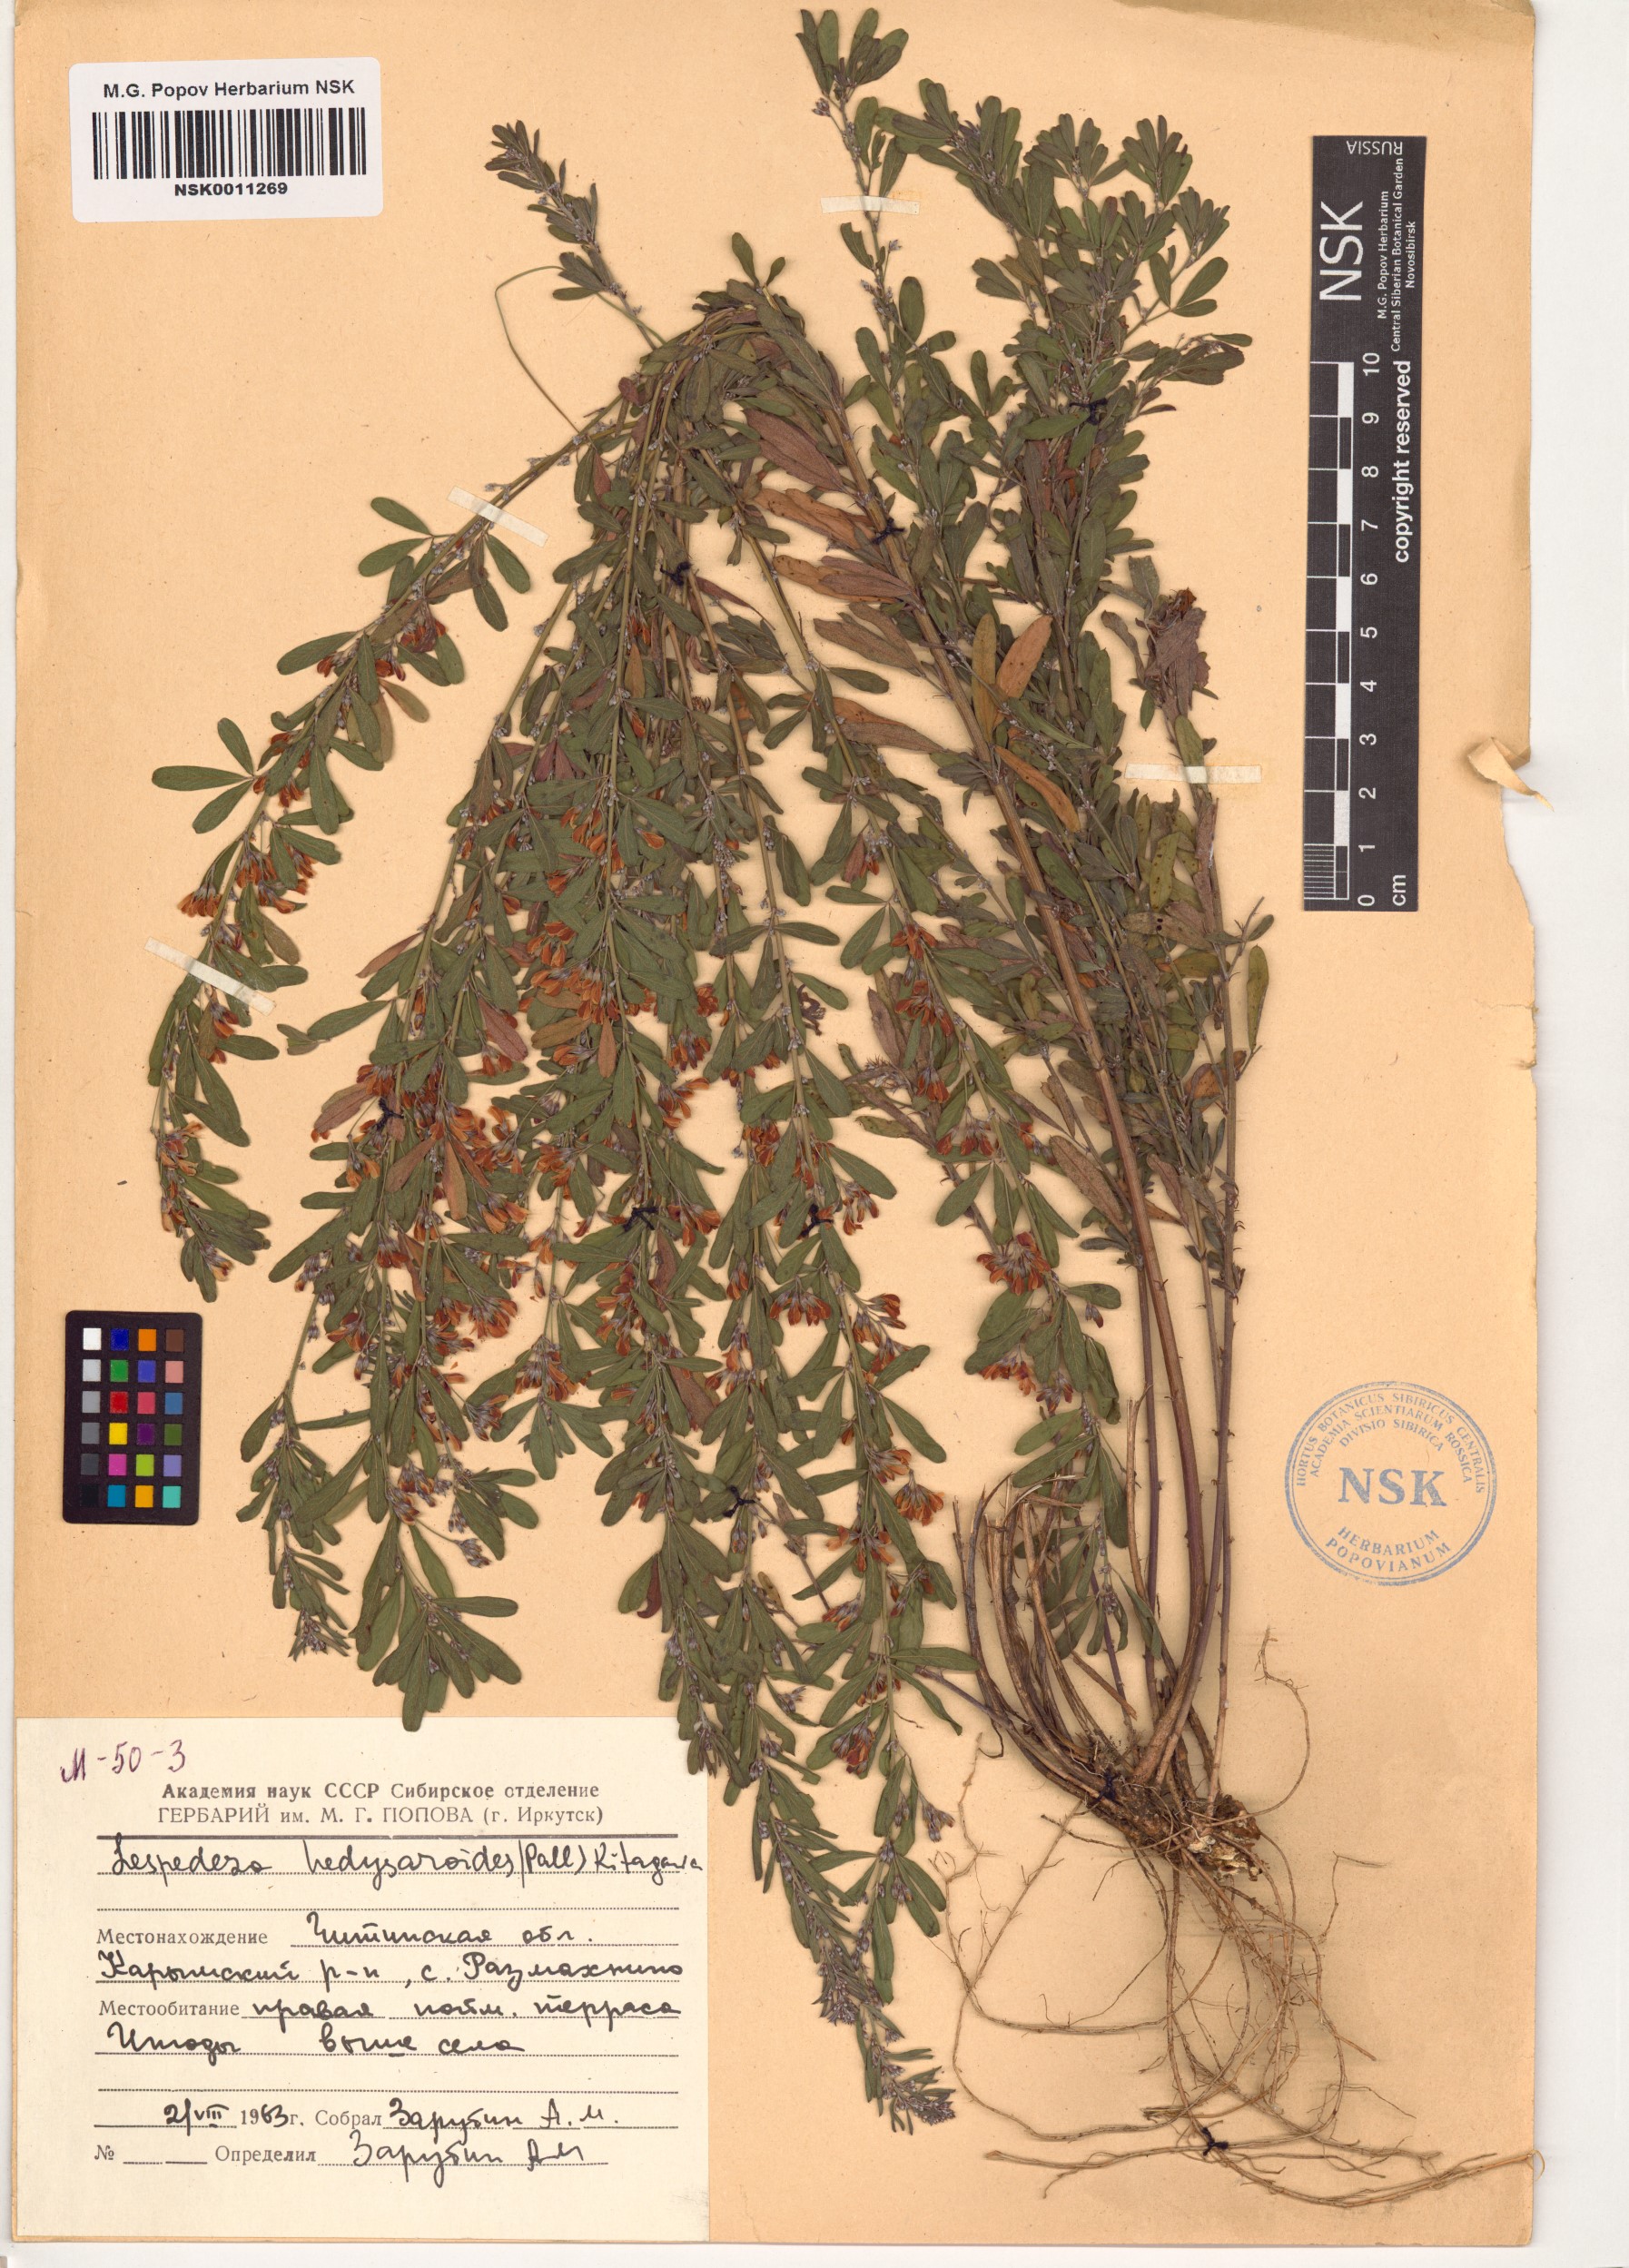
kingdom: Plantae
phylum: Tracheophyta
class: Magnoliopsida
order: Fabales
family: Fabaceae
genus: Lespedeza
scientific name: Lespedeza juncea
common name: Siberian lespedeza
